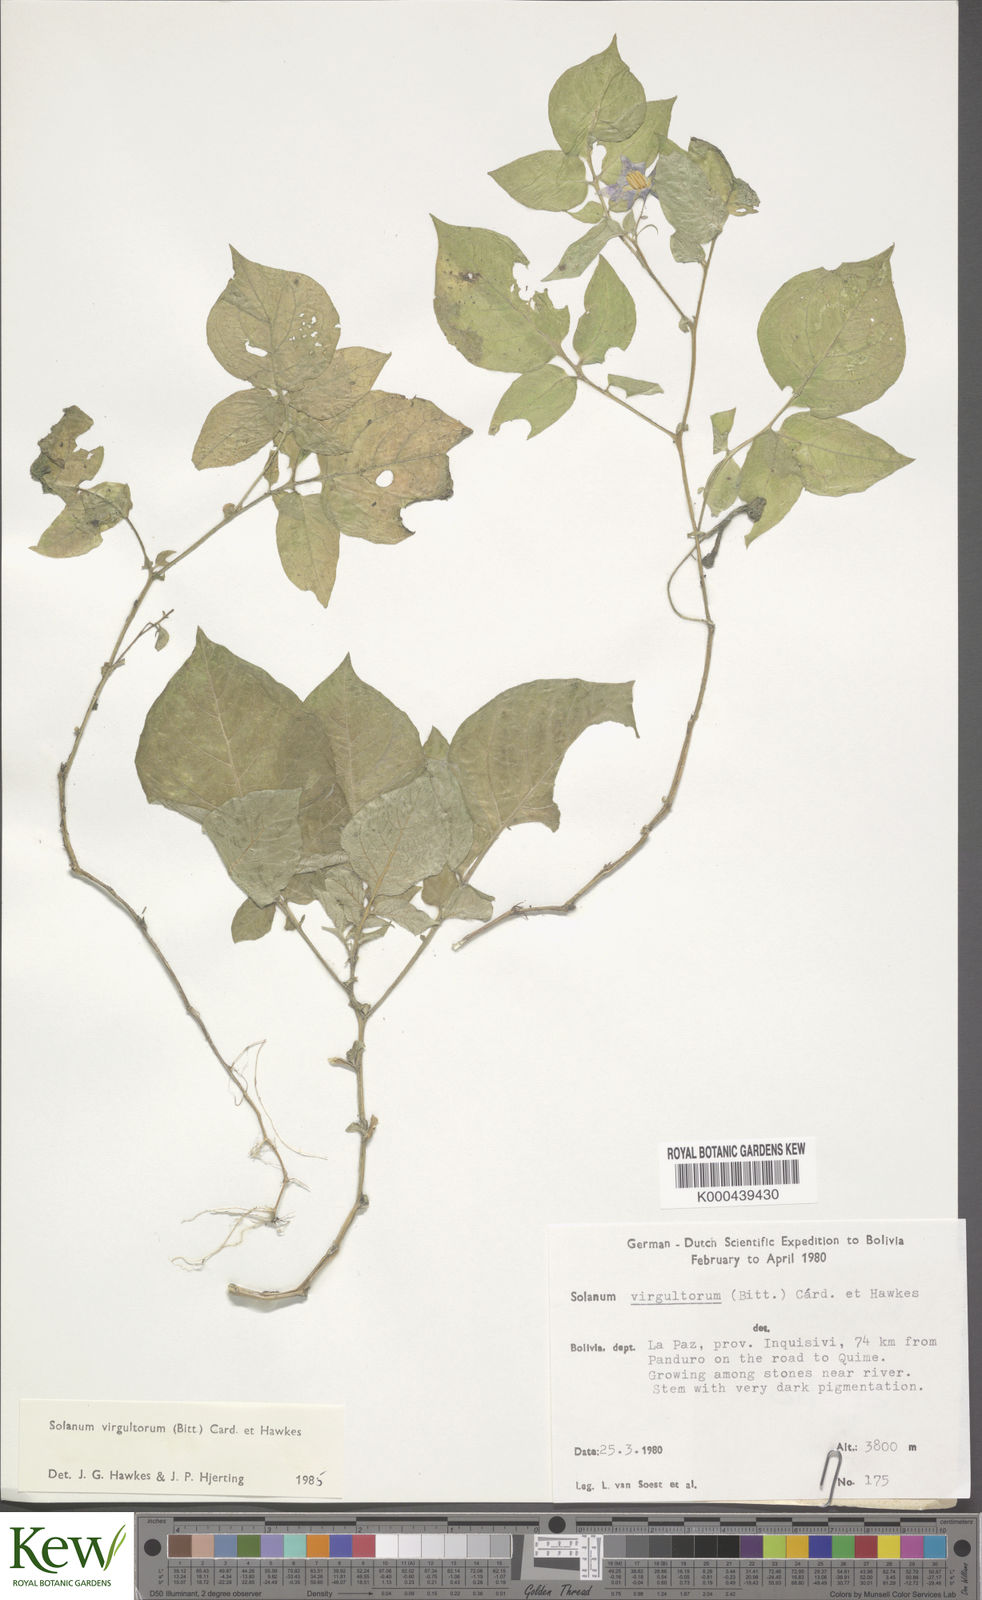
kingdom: Plantae
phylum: Tracheophyta
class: Magnoliopsida
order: Solanales
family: Solanaceae
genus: Solanum
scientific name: Solanum brevicaule
